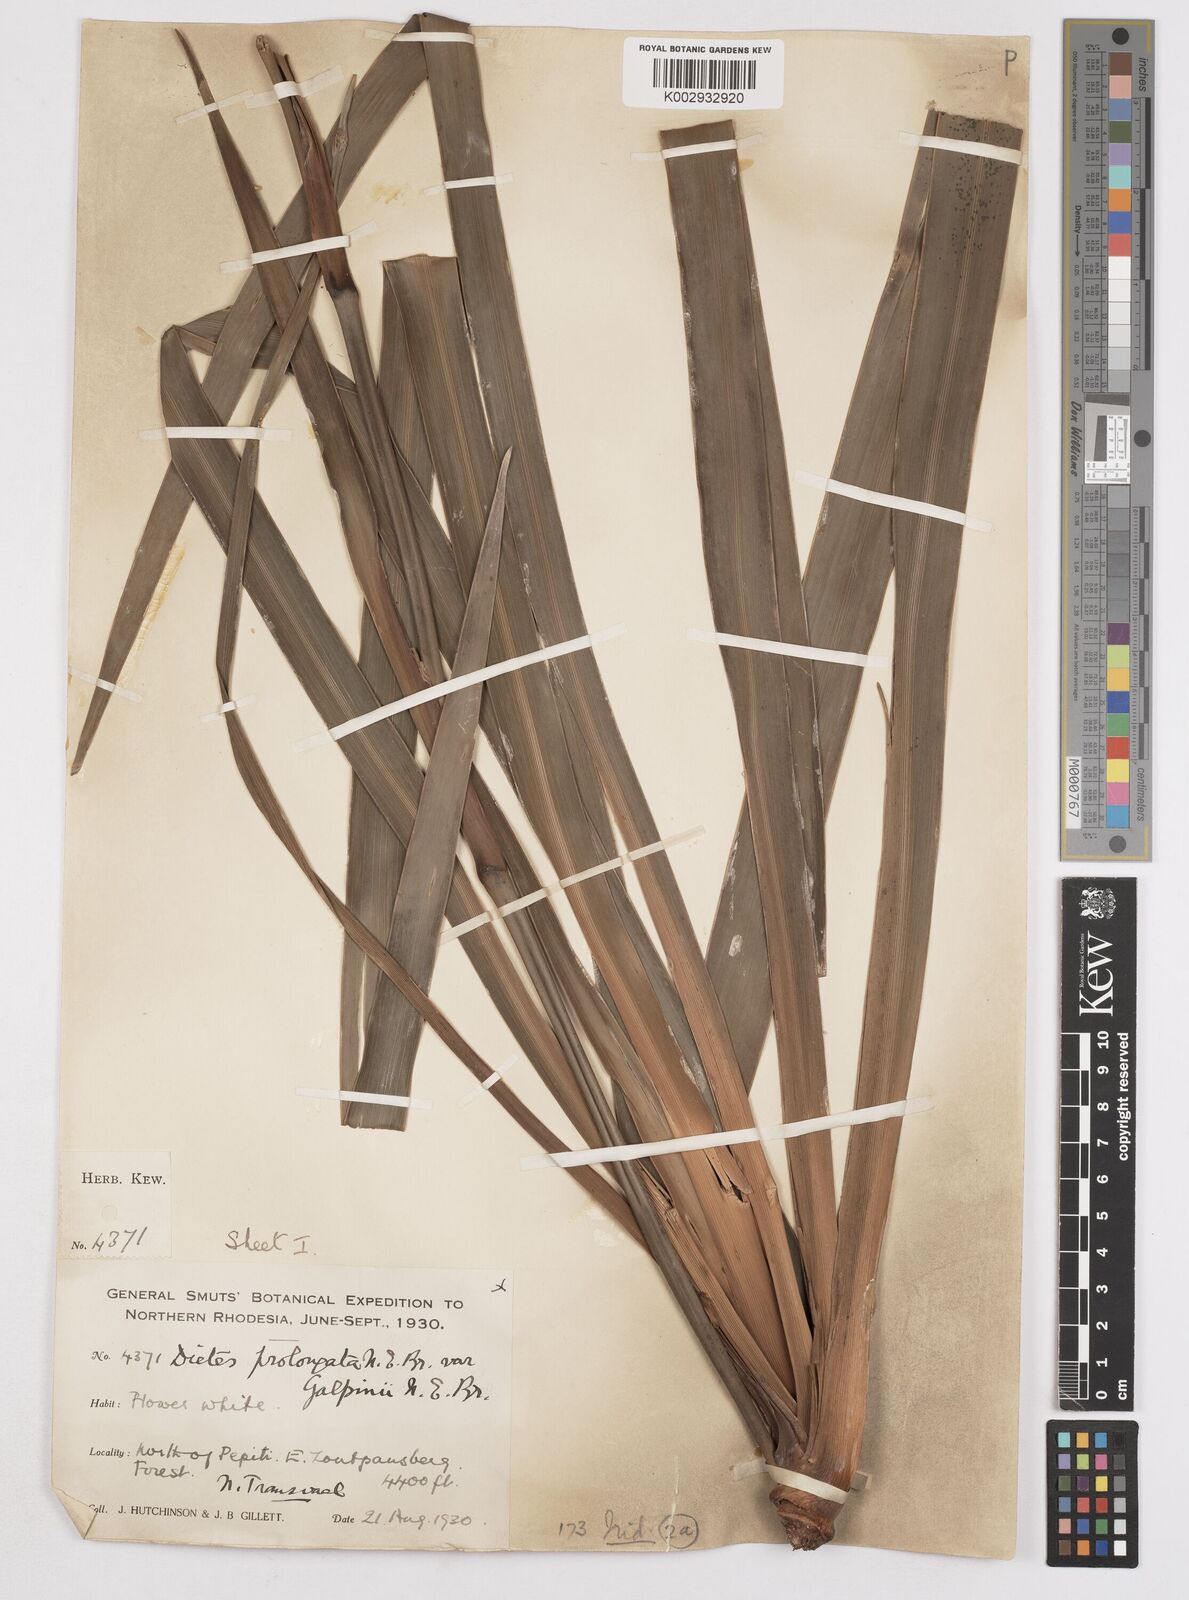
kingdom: Plantae
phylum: Tracheophyta
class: Liliopsida
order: Asparagales
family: Iridaceae
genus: Dietes
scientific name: Dietes iridioides
